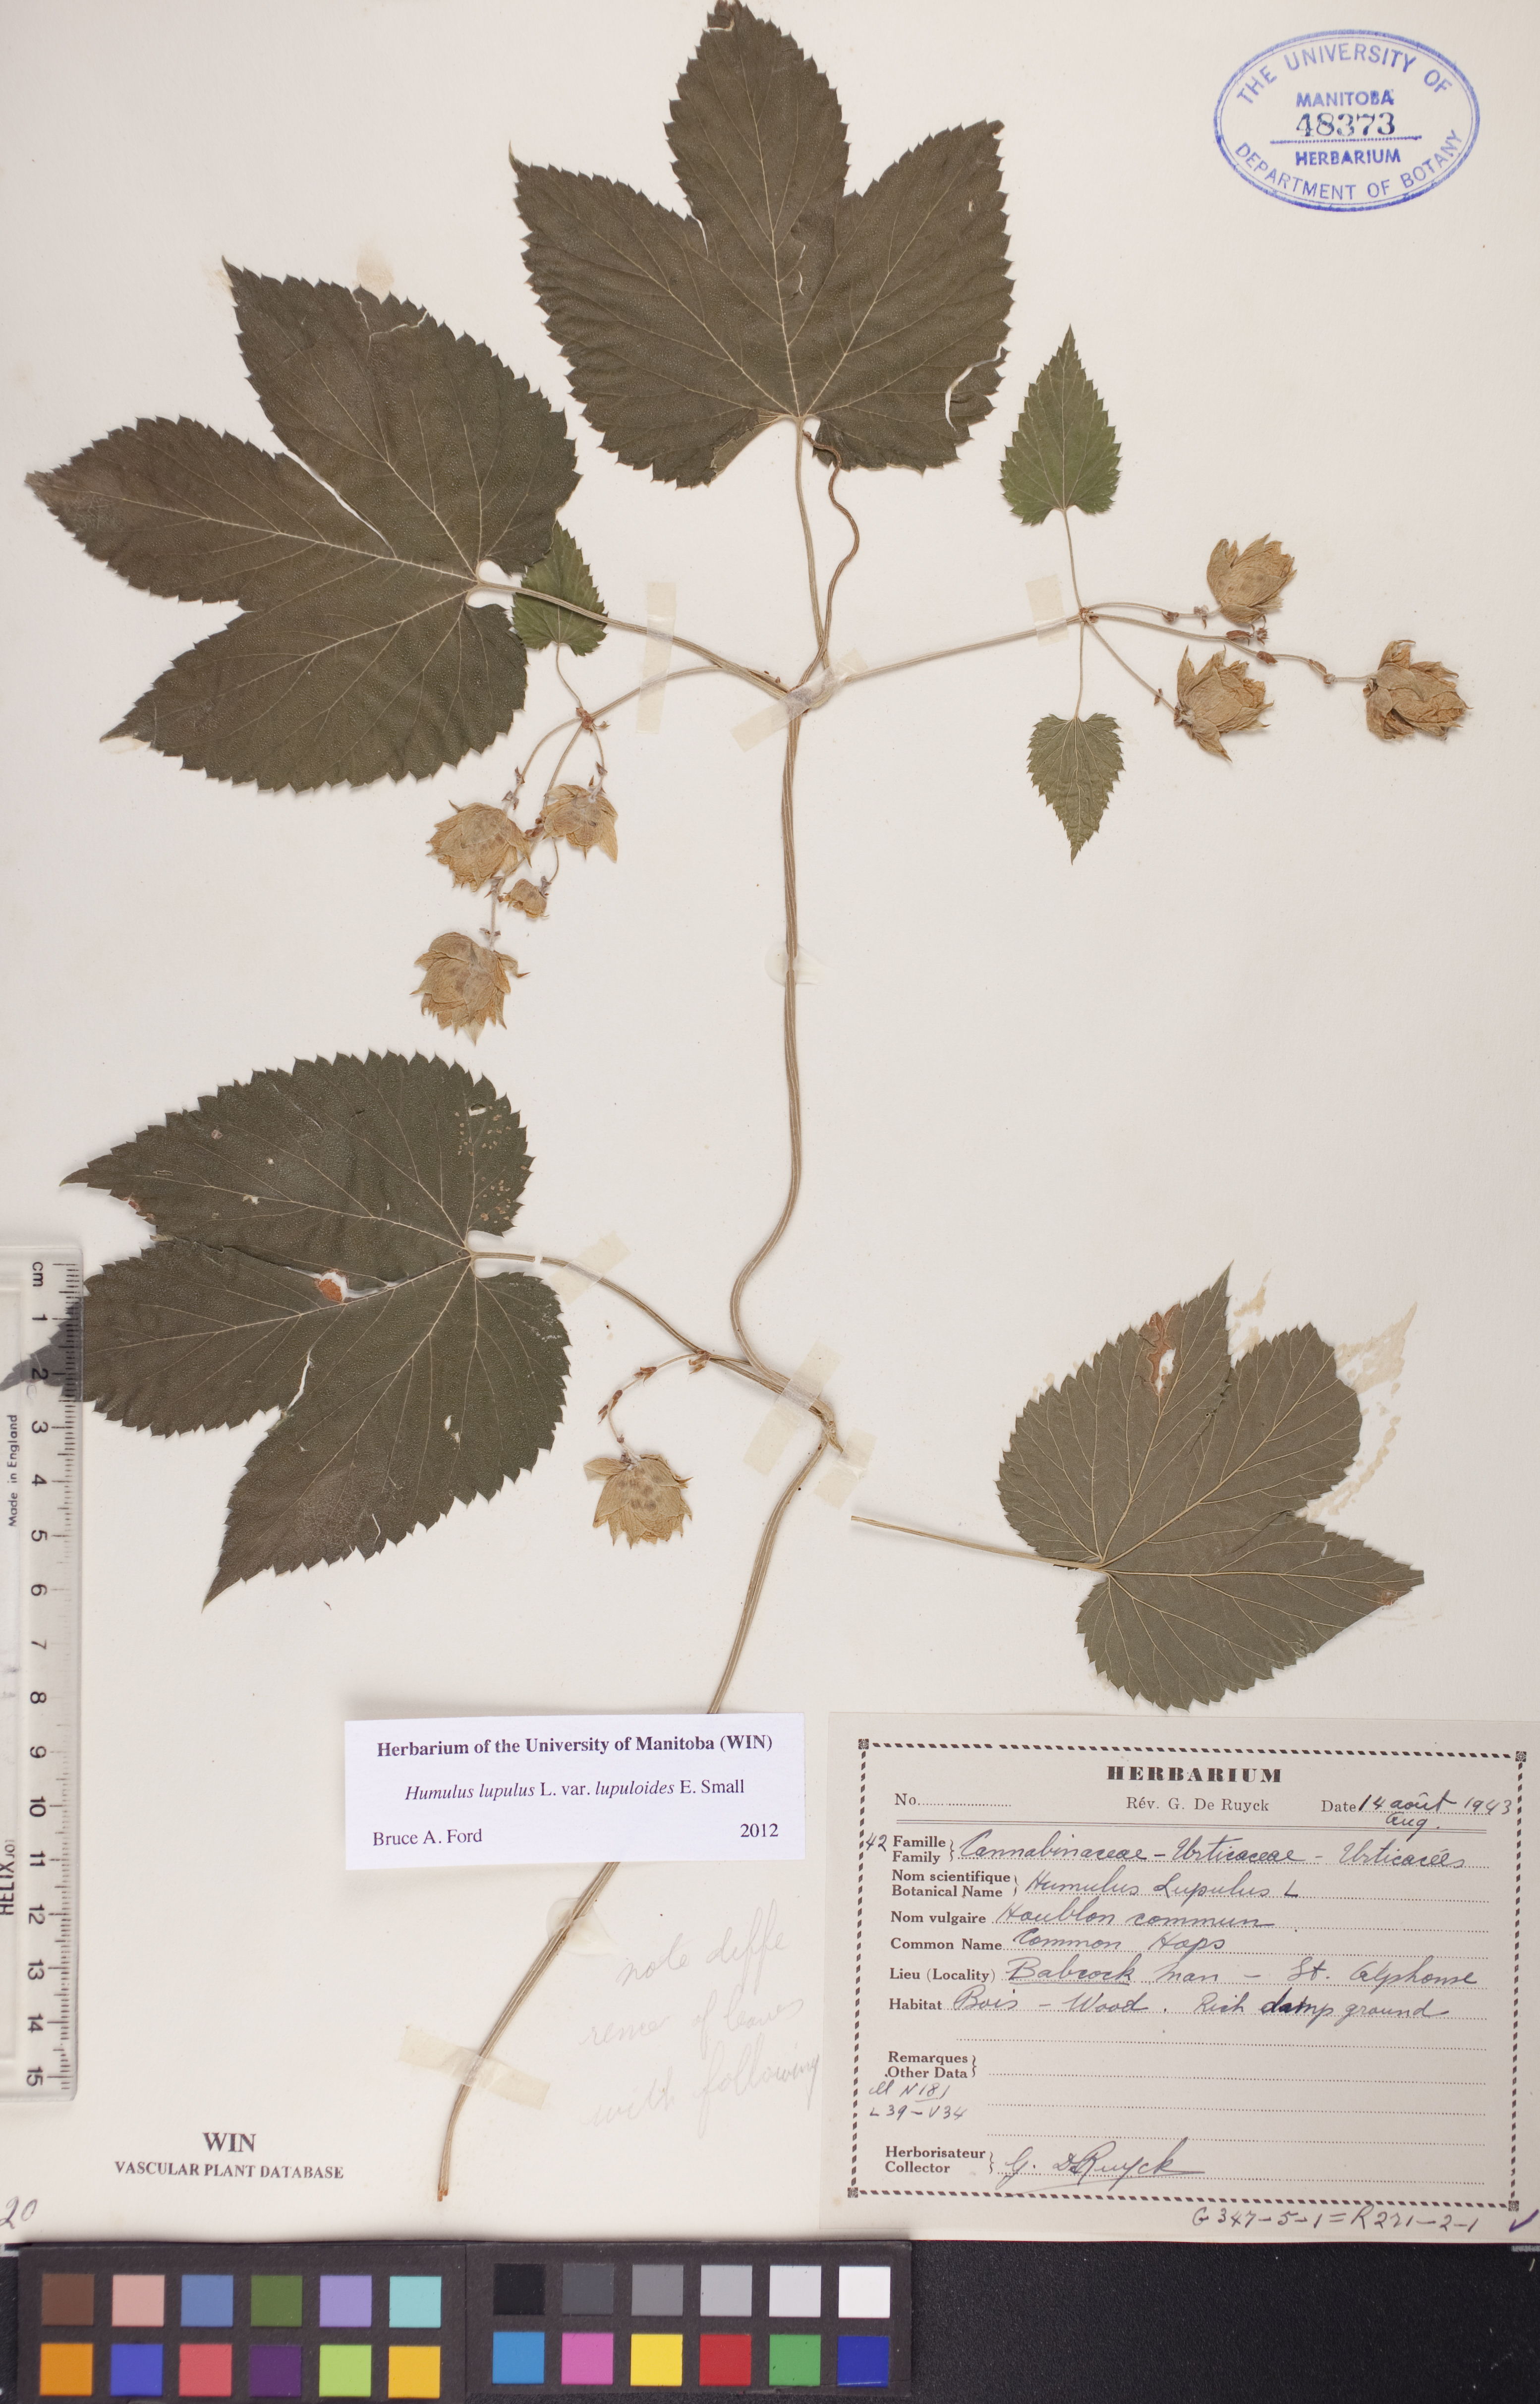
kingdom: Plantae
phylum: Tracheophyta
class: Magnoliopsida
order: Rosales
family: Cannabaceae
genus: Humulus
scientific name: Humulus americanus
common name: American hops
